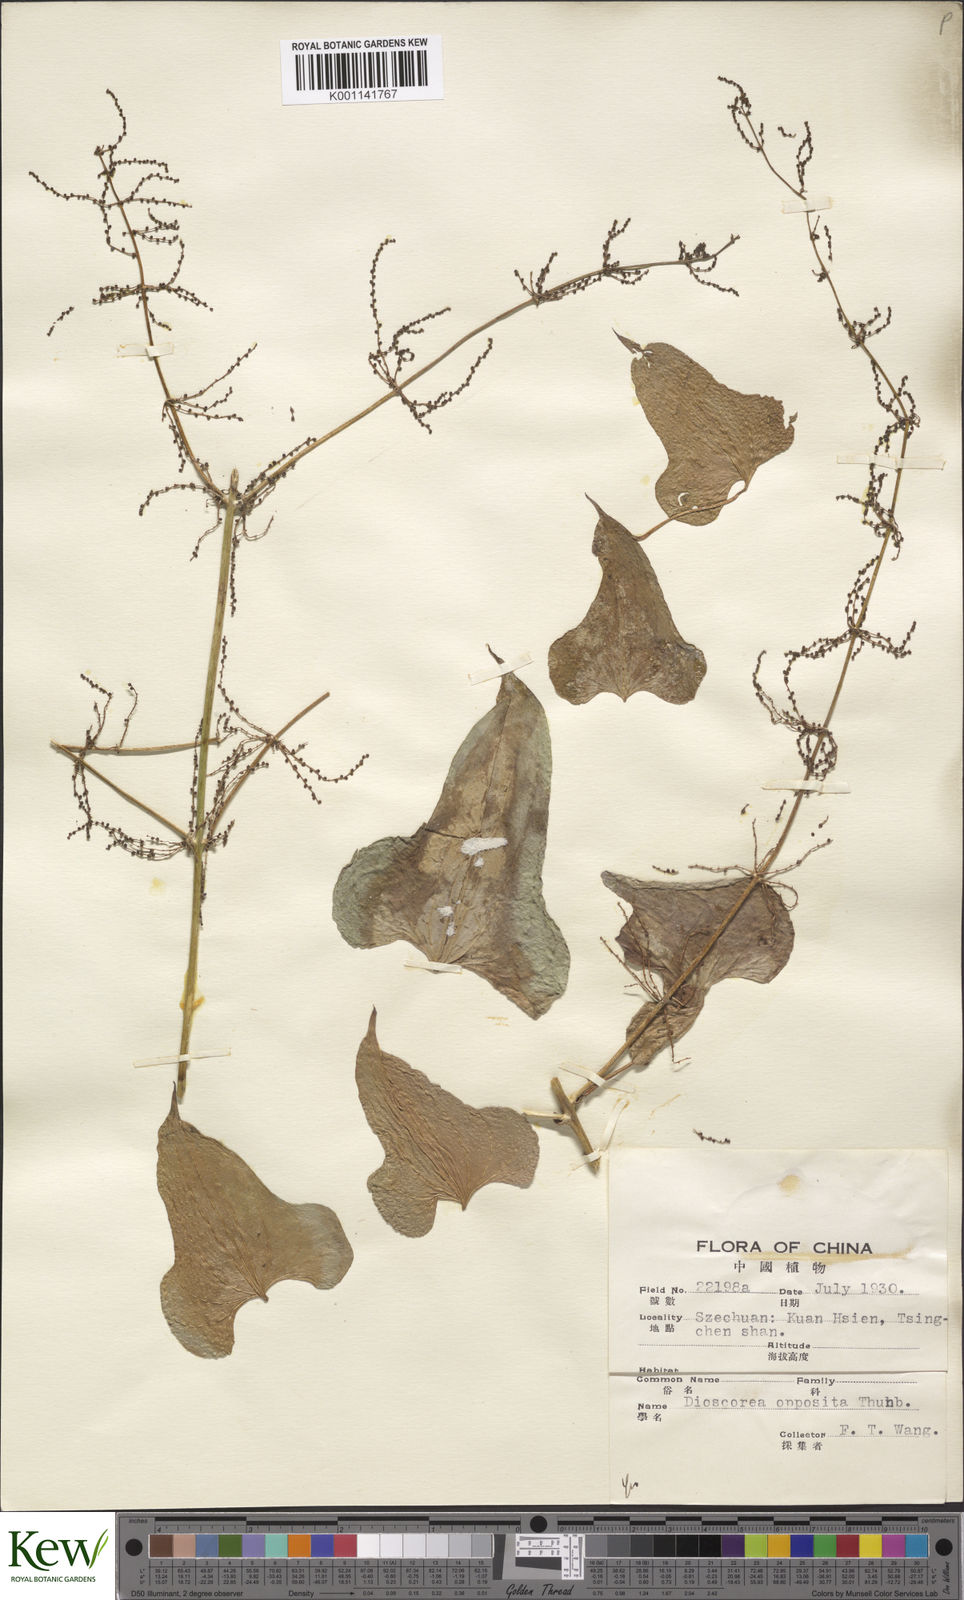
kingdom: Plantae
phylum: Tracheophyta
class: Liliopsida
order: Dioscoreales
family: Dioscoreaceae
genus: Dioscorea
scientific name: Dioscorea oppositifolia
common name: Chinese yam
